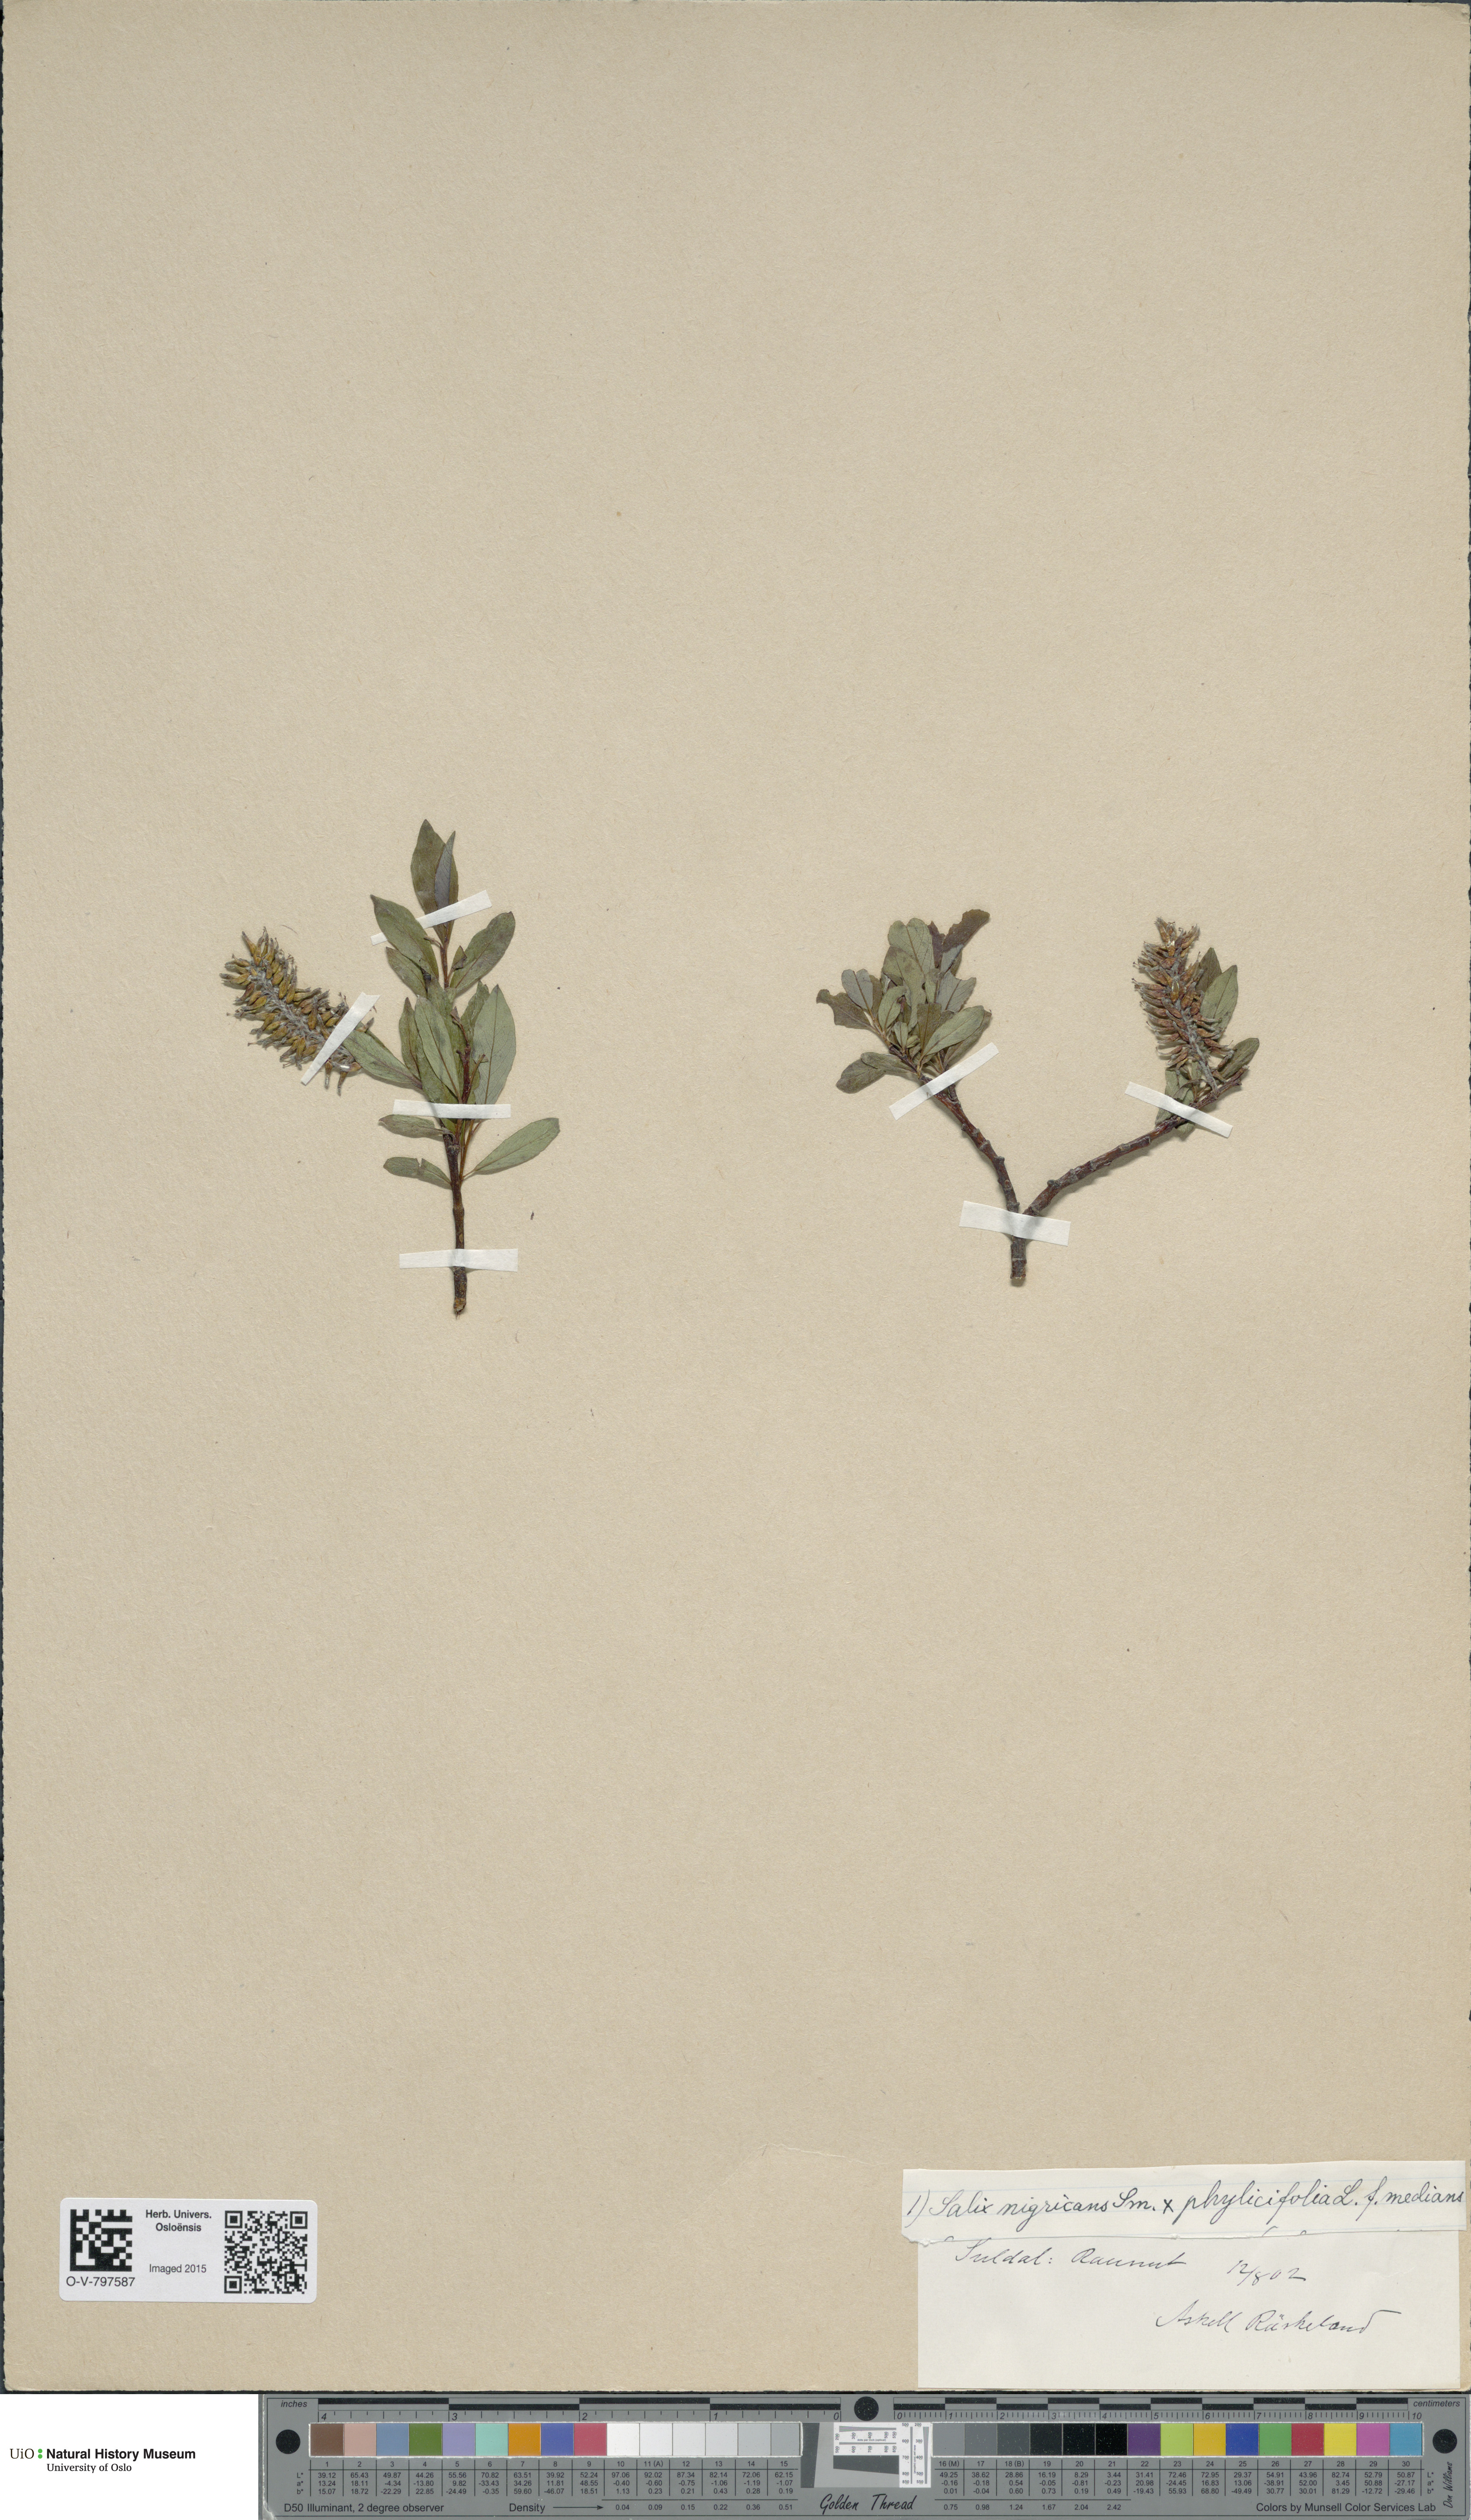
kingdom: Plantae
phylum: Tracheophyta
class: Magnoliopsida
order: Malpighiales
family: Salicaceae
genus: Salix
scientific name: Salix
